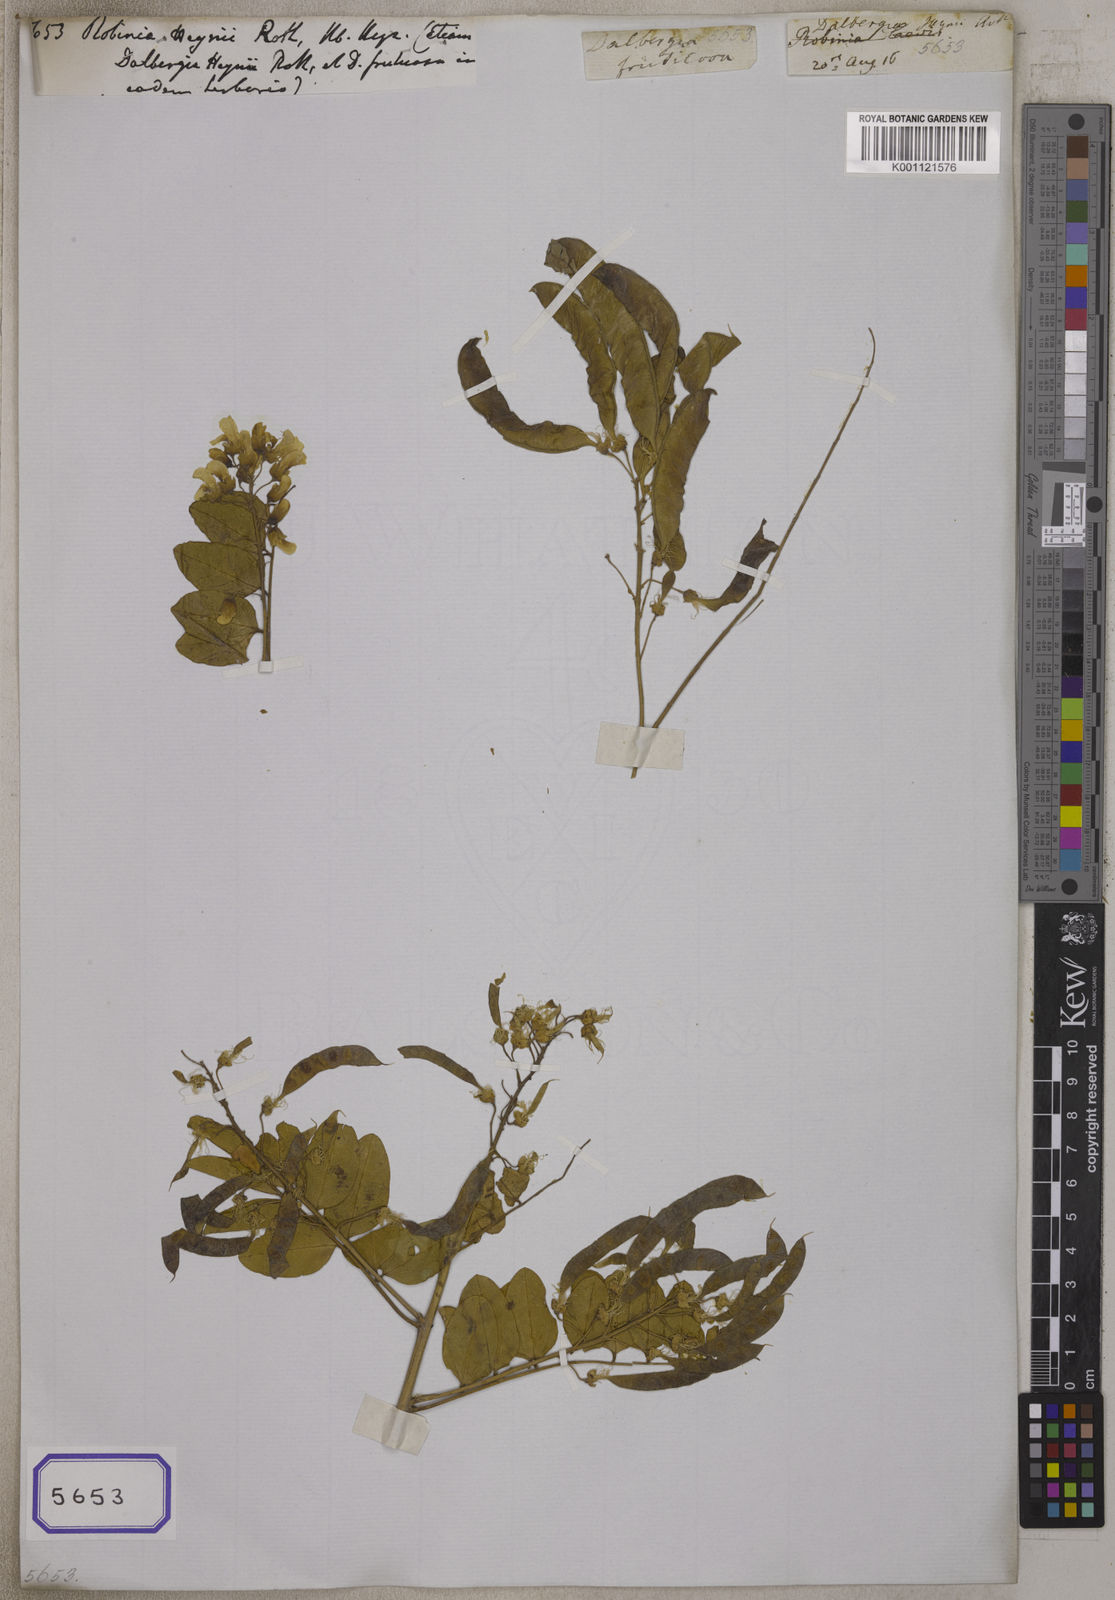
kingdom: Plantae
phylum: Tracheophyta
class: Magnoliopsida
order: Fabales
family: Fabaceae
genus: Calpurnia
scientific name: Calpurnia aurea
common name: Wild laburnum
